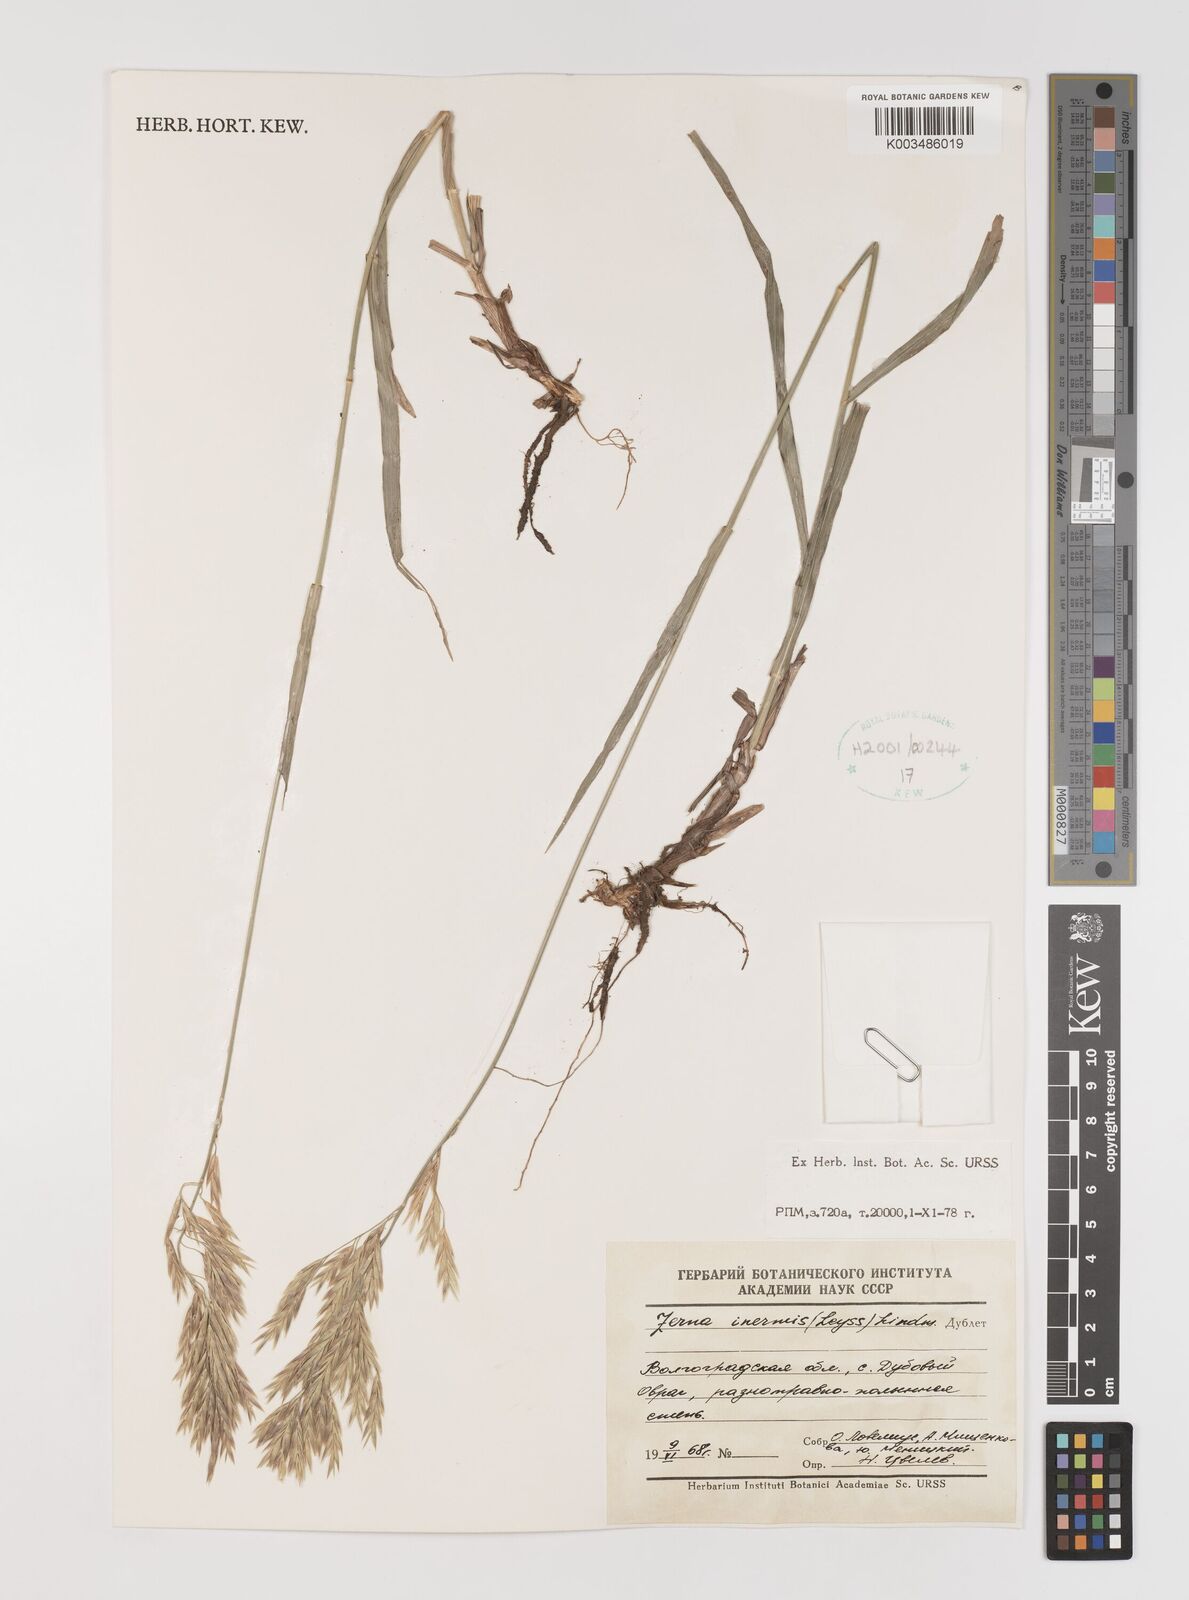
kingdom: Plantae
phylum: Tracheophyta
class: Liliopsida
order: Poales
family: Poaceae
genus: Bromus
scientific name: Bromus inermis
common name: Smooth brome
